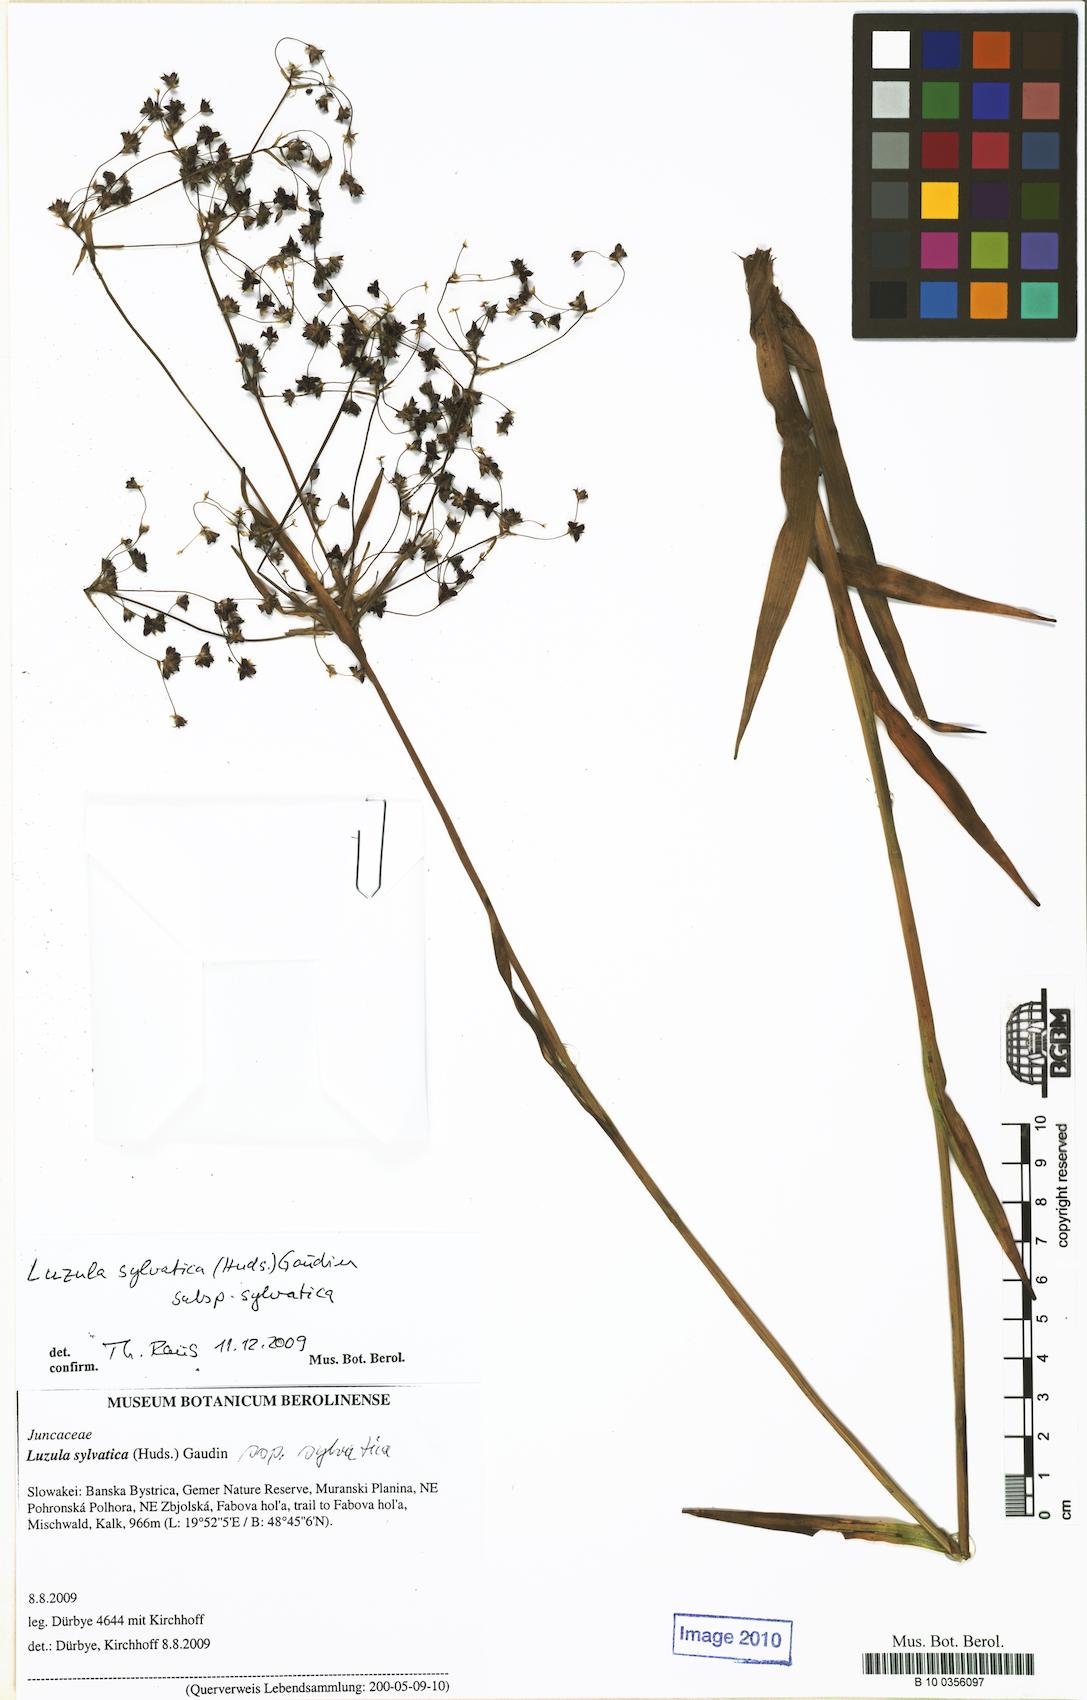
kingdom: Plantae
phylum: Tracheophyta
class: Liliopsida
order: Poales
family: Juncaceae
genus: Luzula
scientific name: Luzula sylvatica
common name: Great wood-rush
